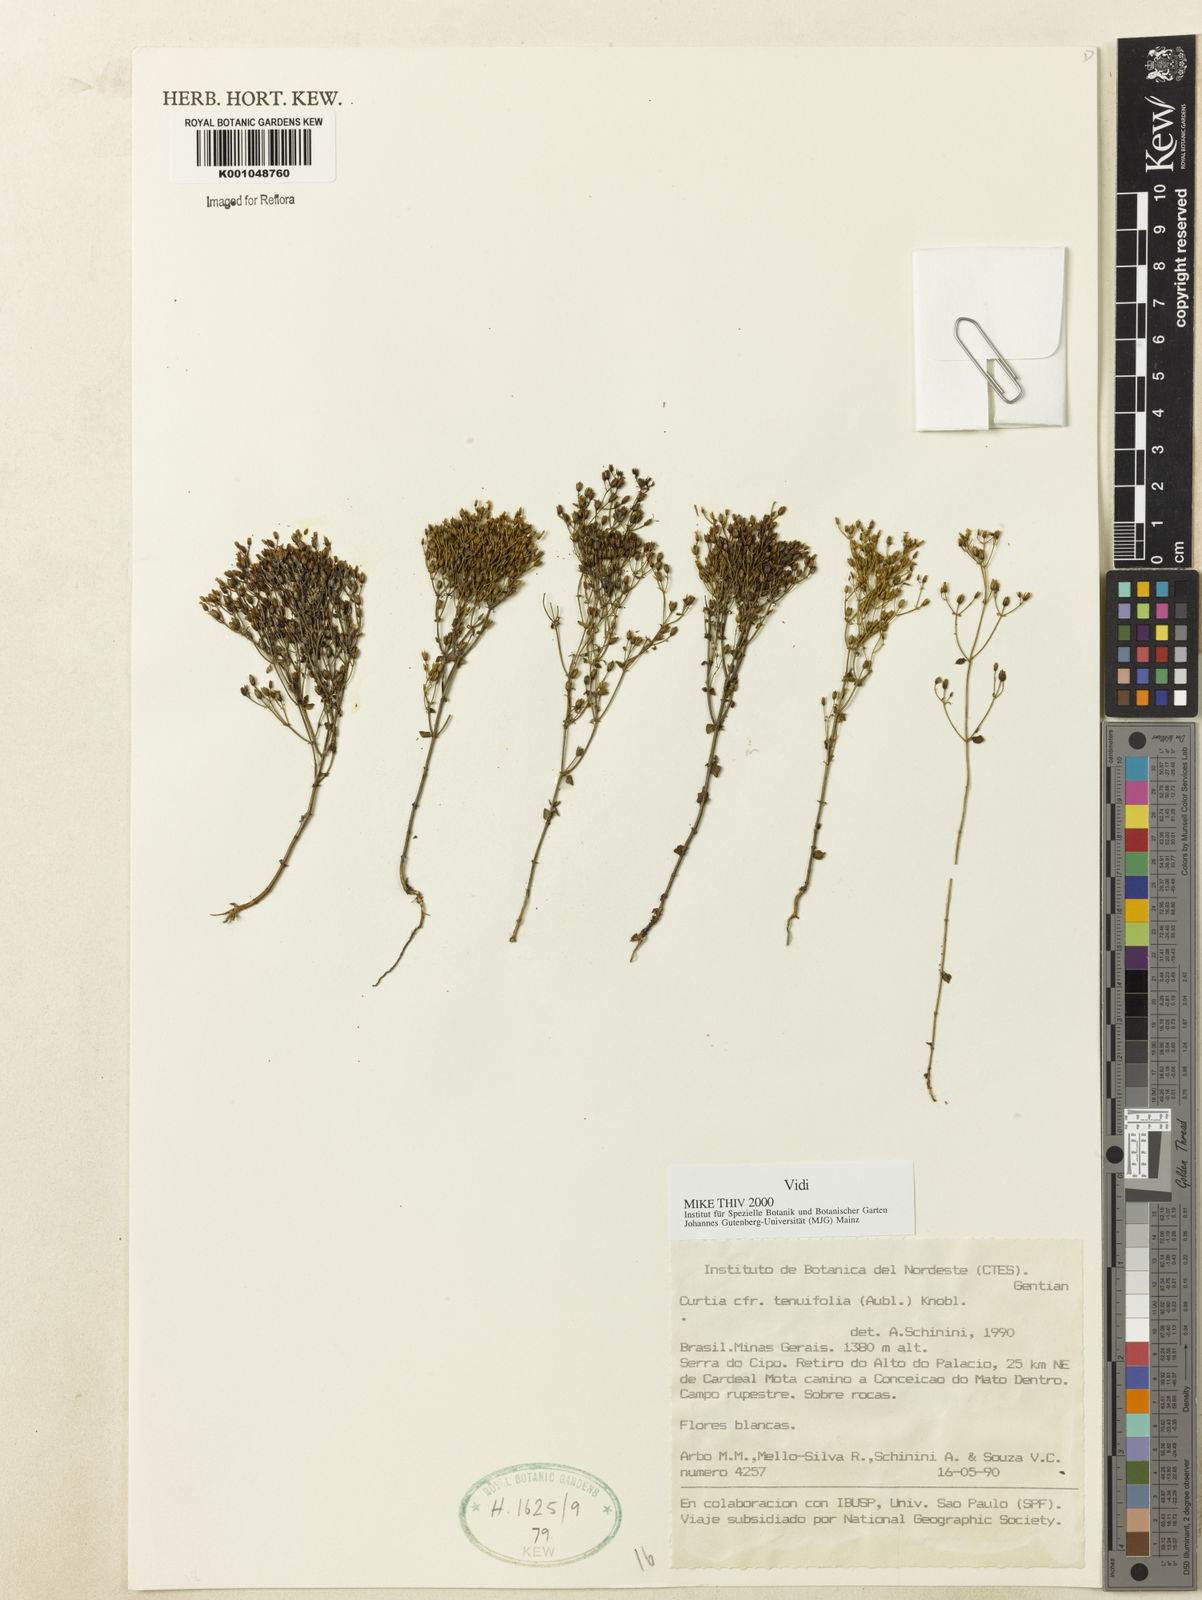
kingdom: Plantae
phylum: Tracheophyta
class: Magnoliopsida
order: Gentianales
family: Gentianaceae
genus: Curtia
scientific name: Curtia tenuifolia
